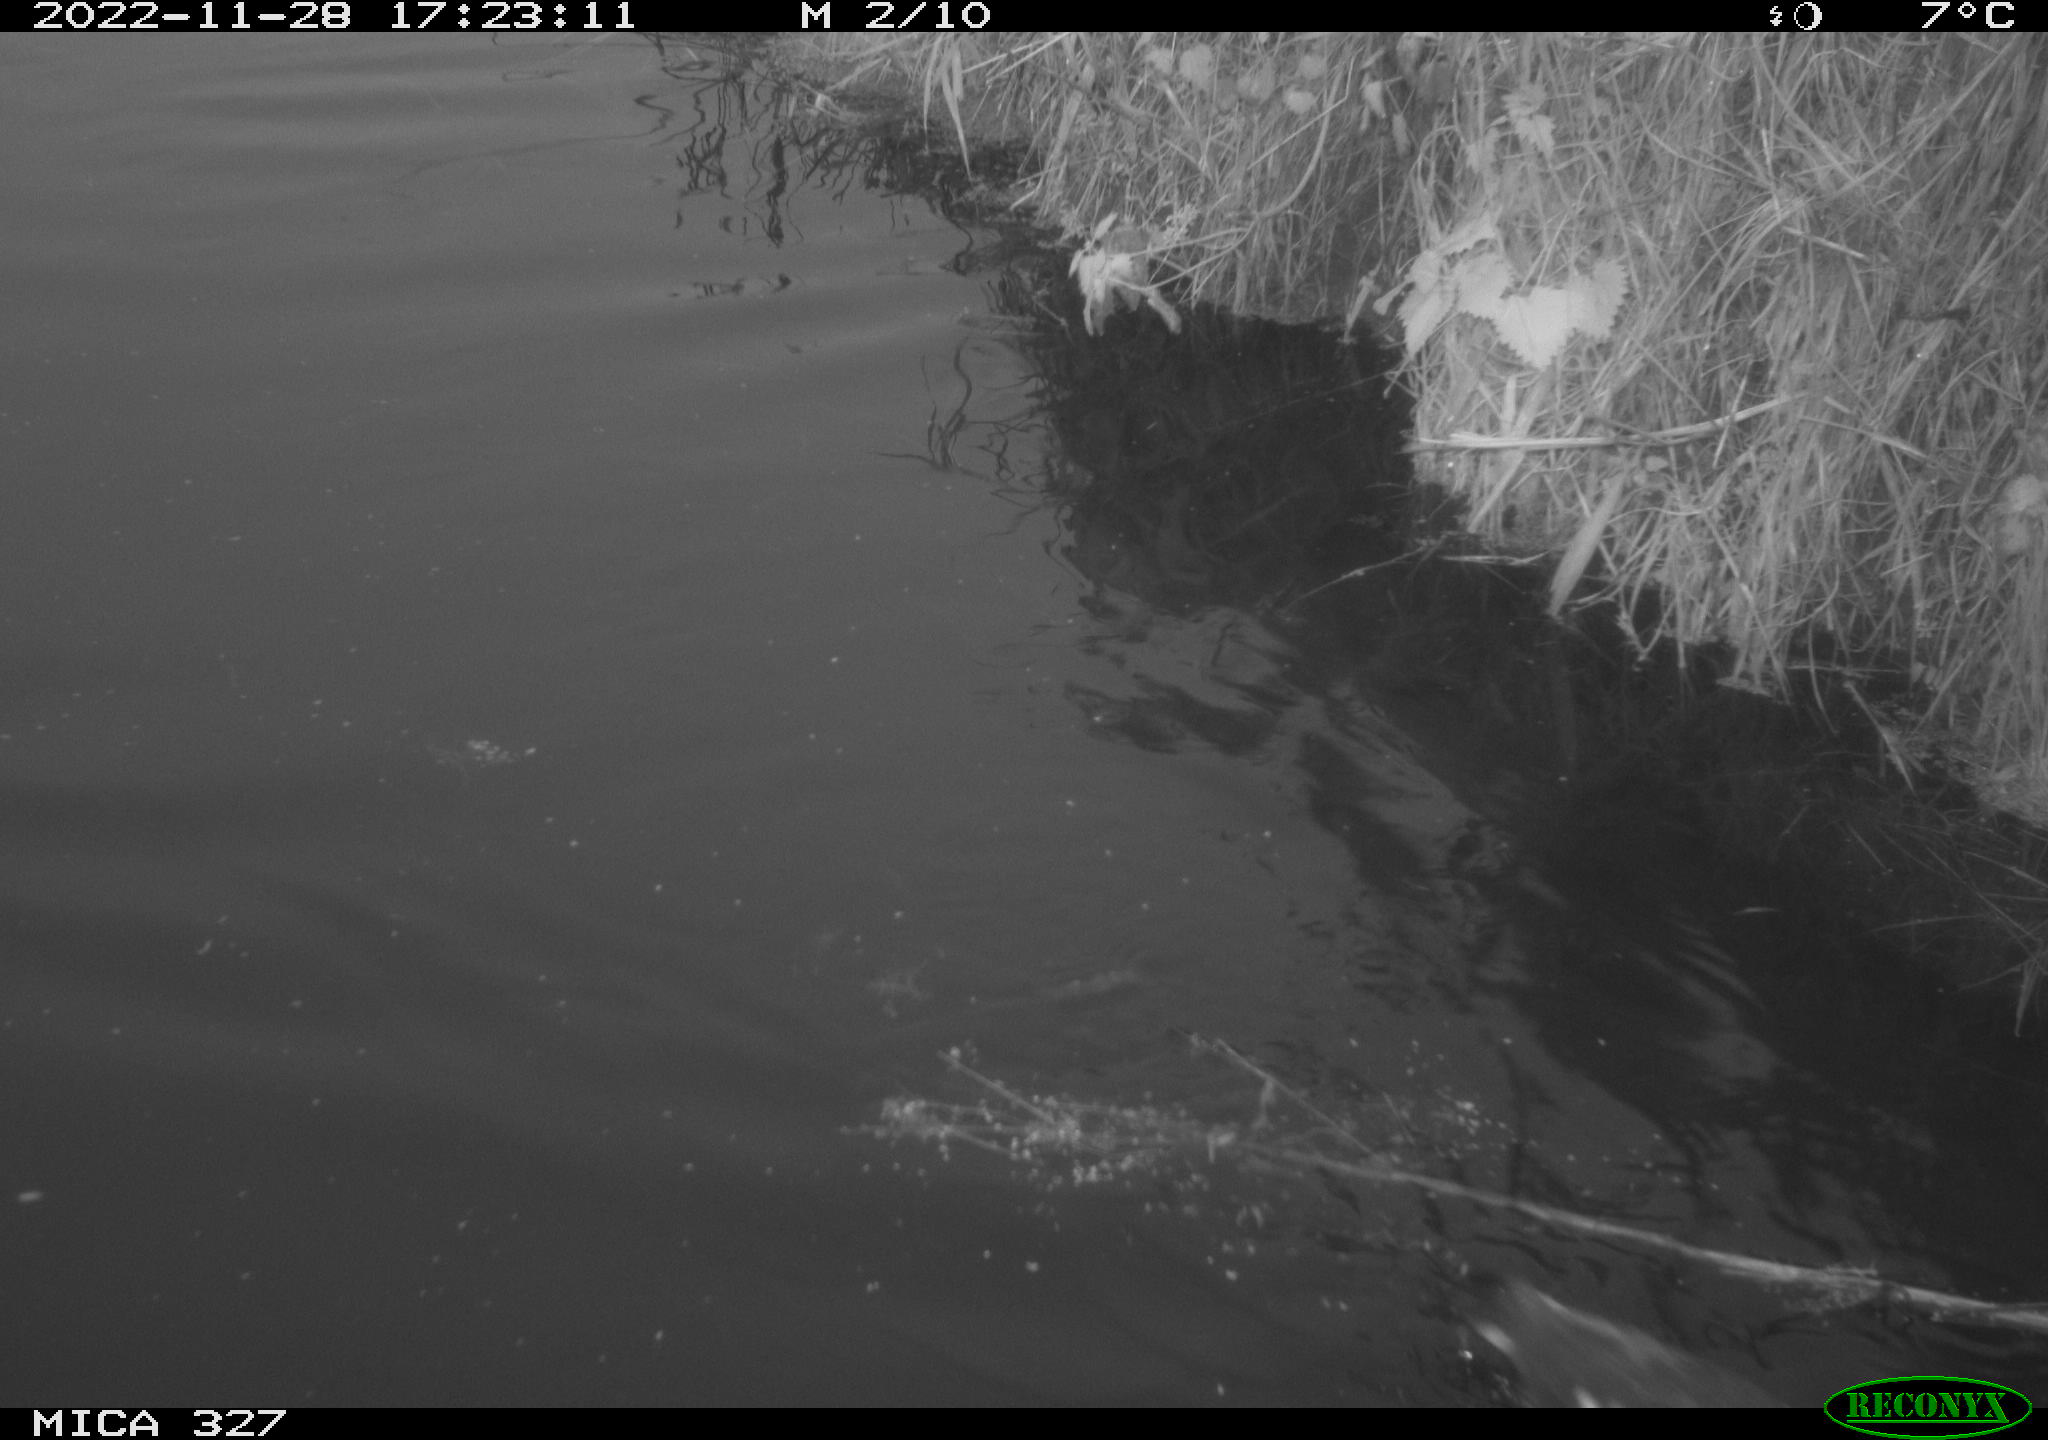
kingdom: Animalia
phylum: Chordata
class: Aves
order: Gruiformes
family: Rallidae
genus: Gallinula
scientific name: Gallinula chloropus
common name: Common moorhen
